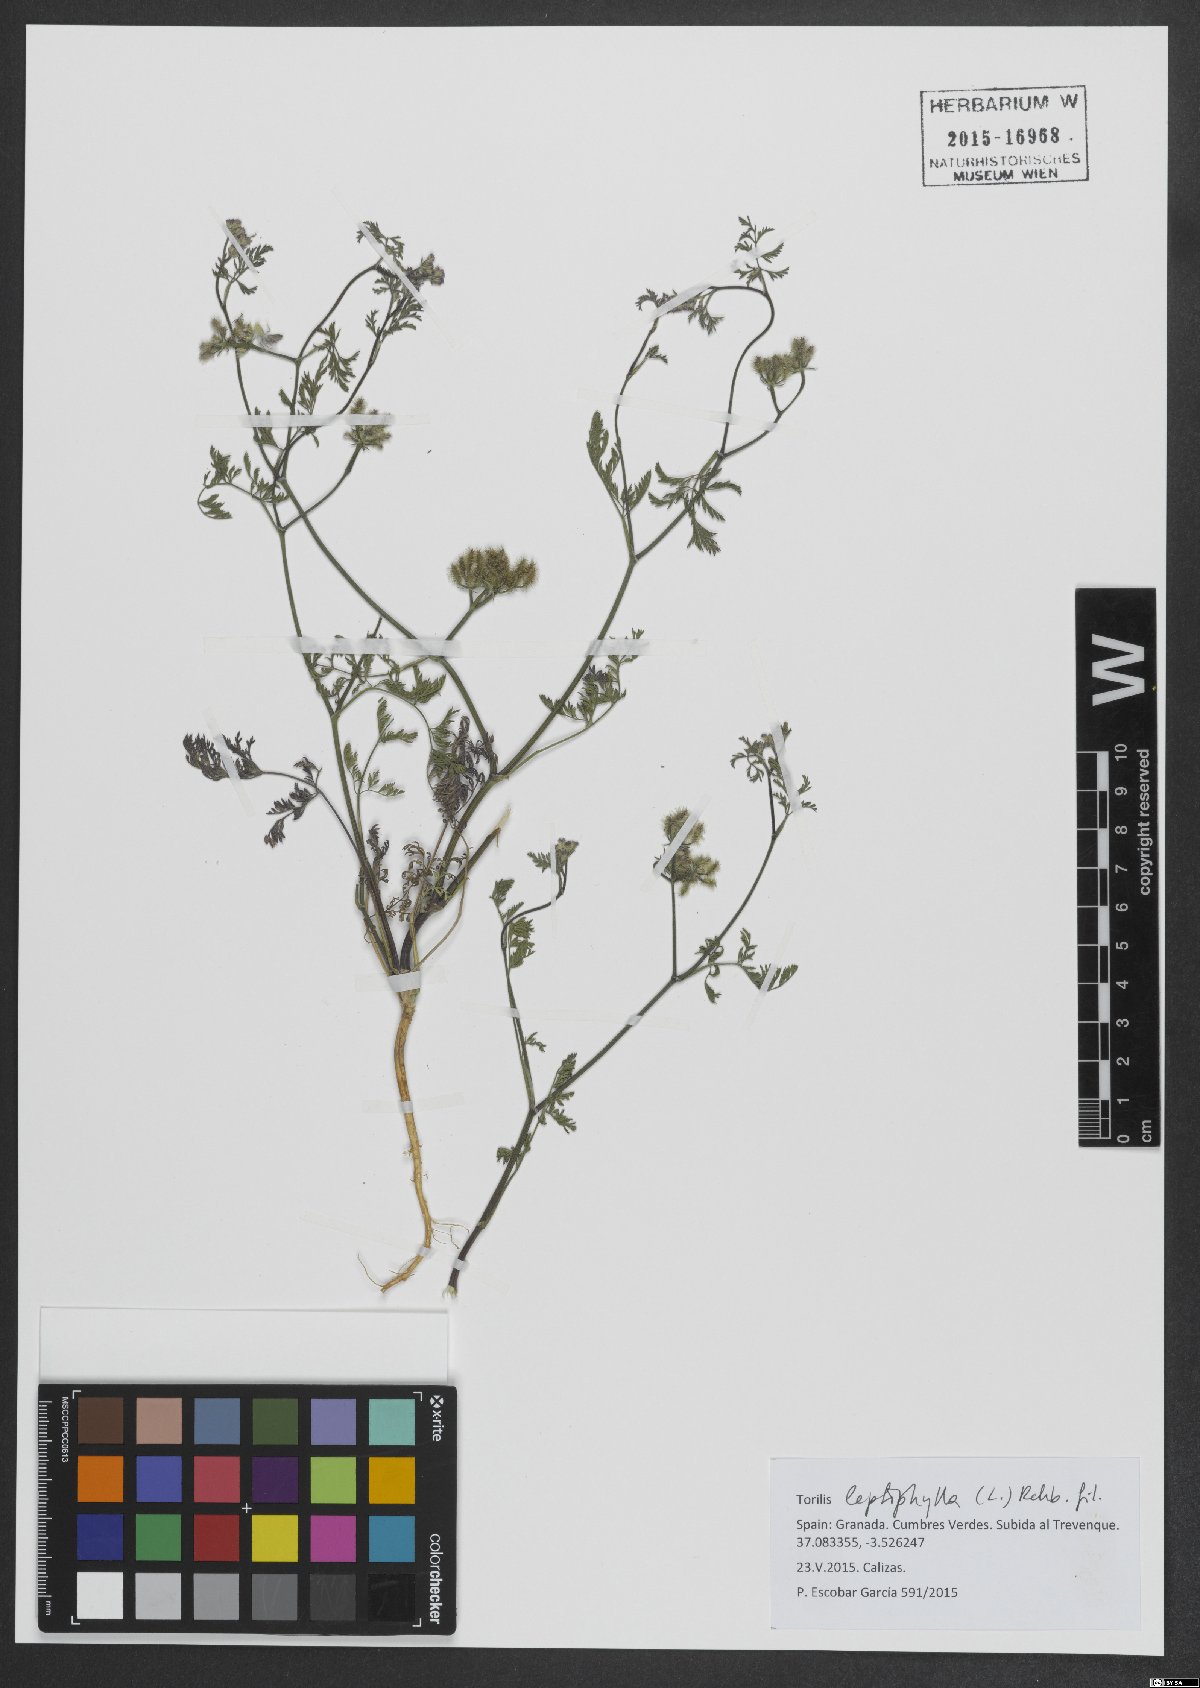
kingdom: Plantae
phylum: Tracheophyta
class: Magnoliopsida
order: Apiales
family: Apiaceae
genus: Torilis
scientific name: Torilis leptophylla
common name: Bristlefruit hedgeparsley
